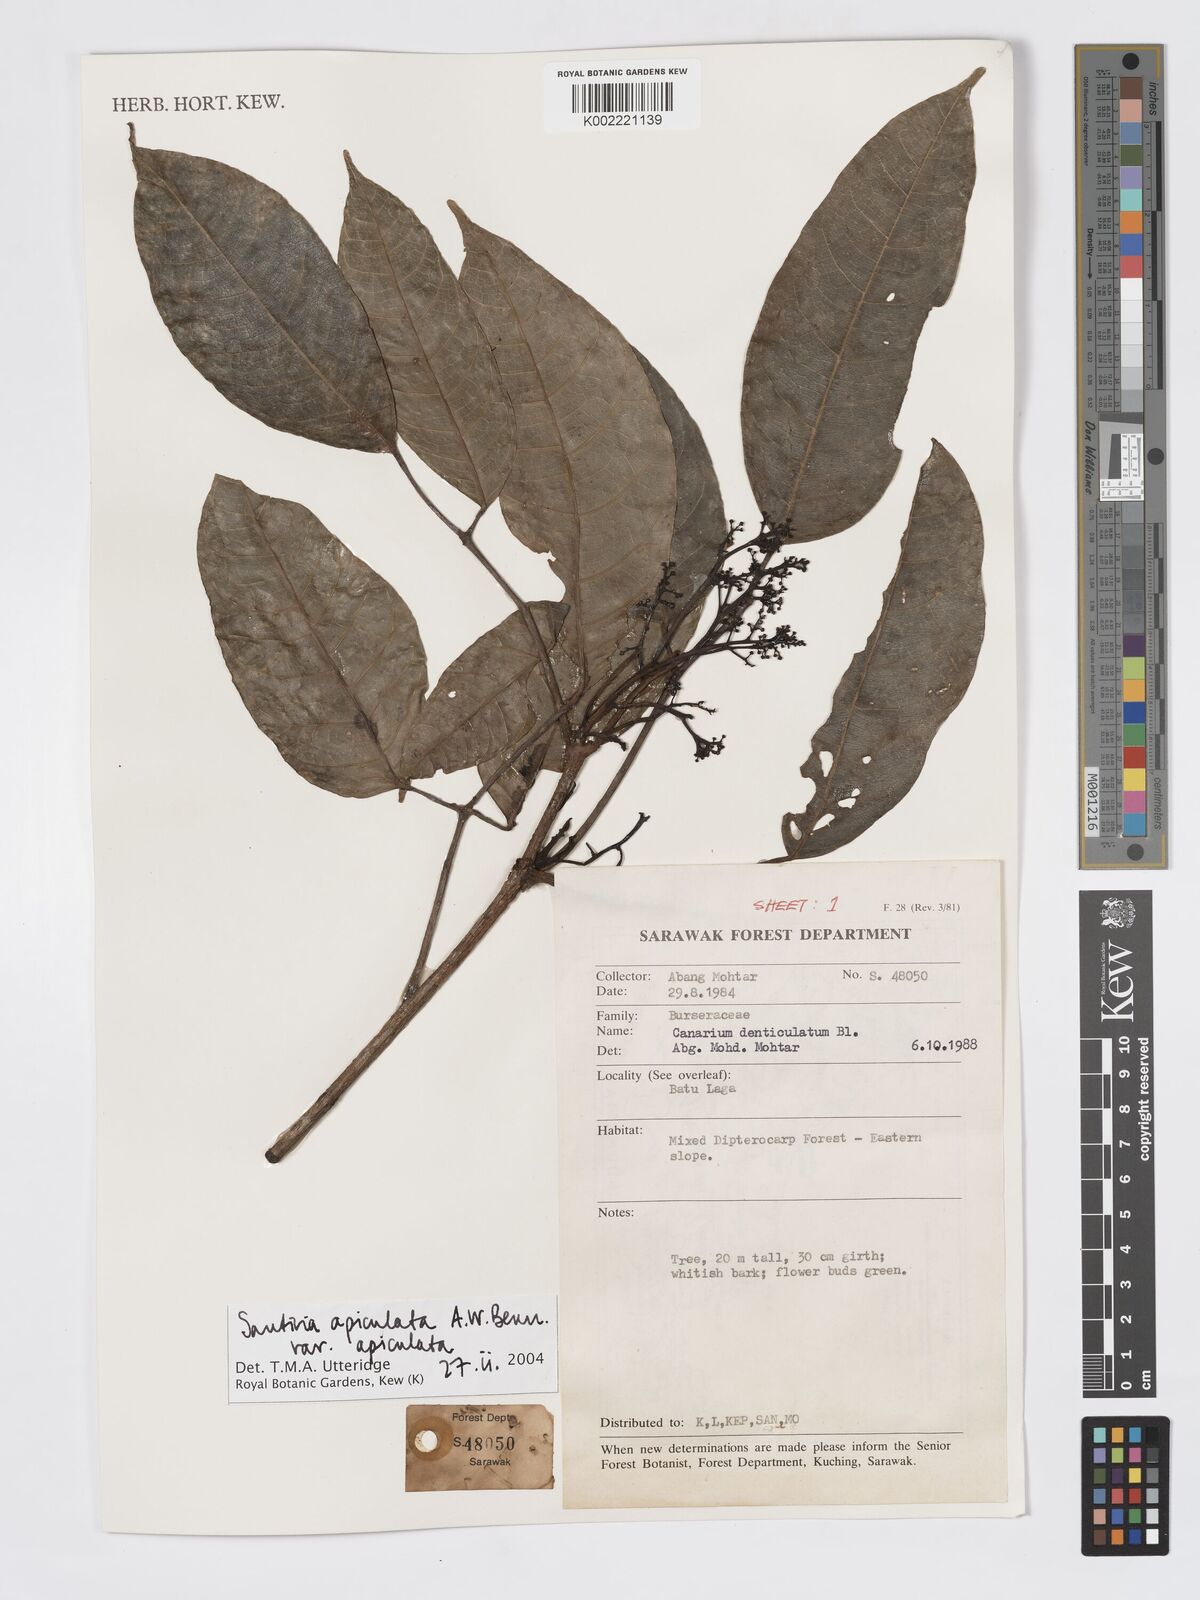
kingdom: Plantae
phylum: Tracheophyta
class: Magnoliopsida
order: Sapindales
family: Burseraceae
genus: Santiria
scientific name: Santiria apiculata
